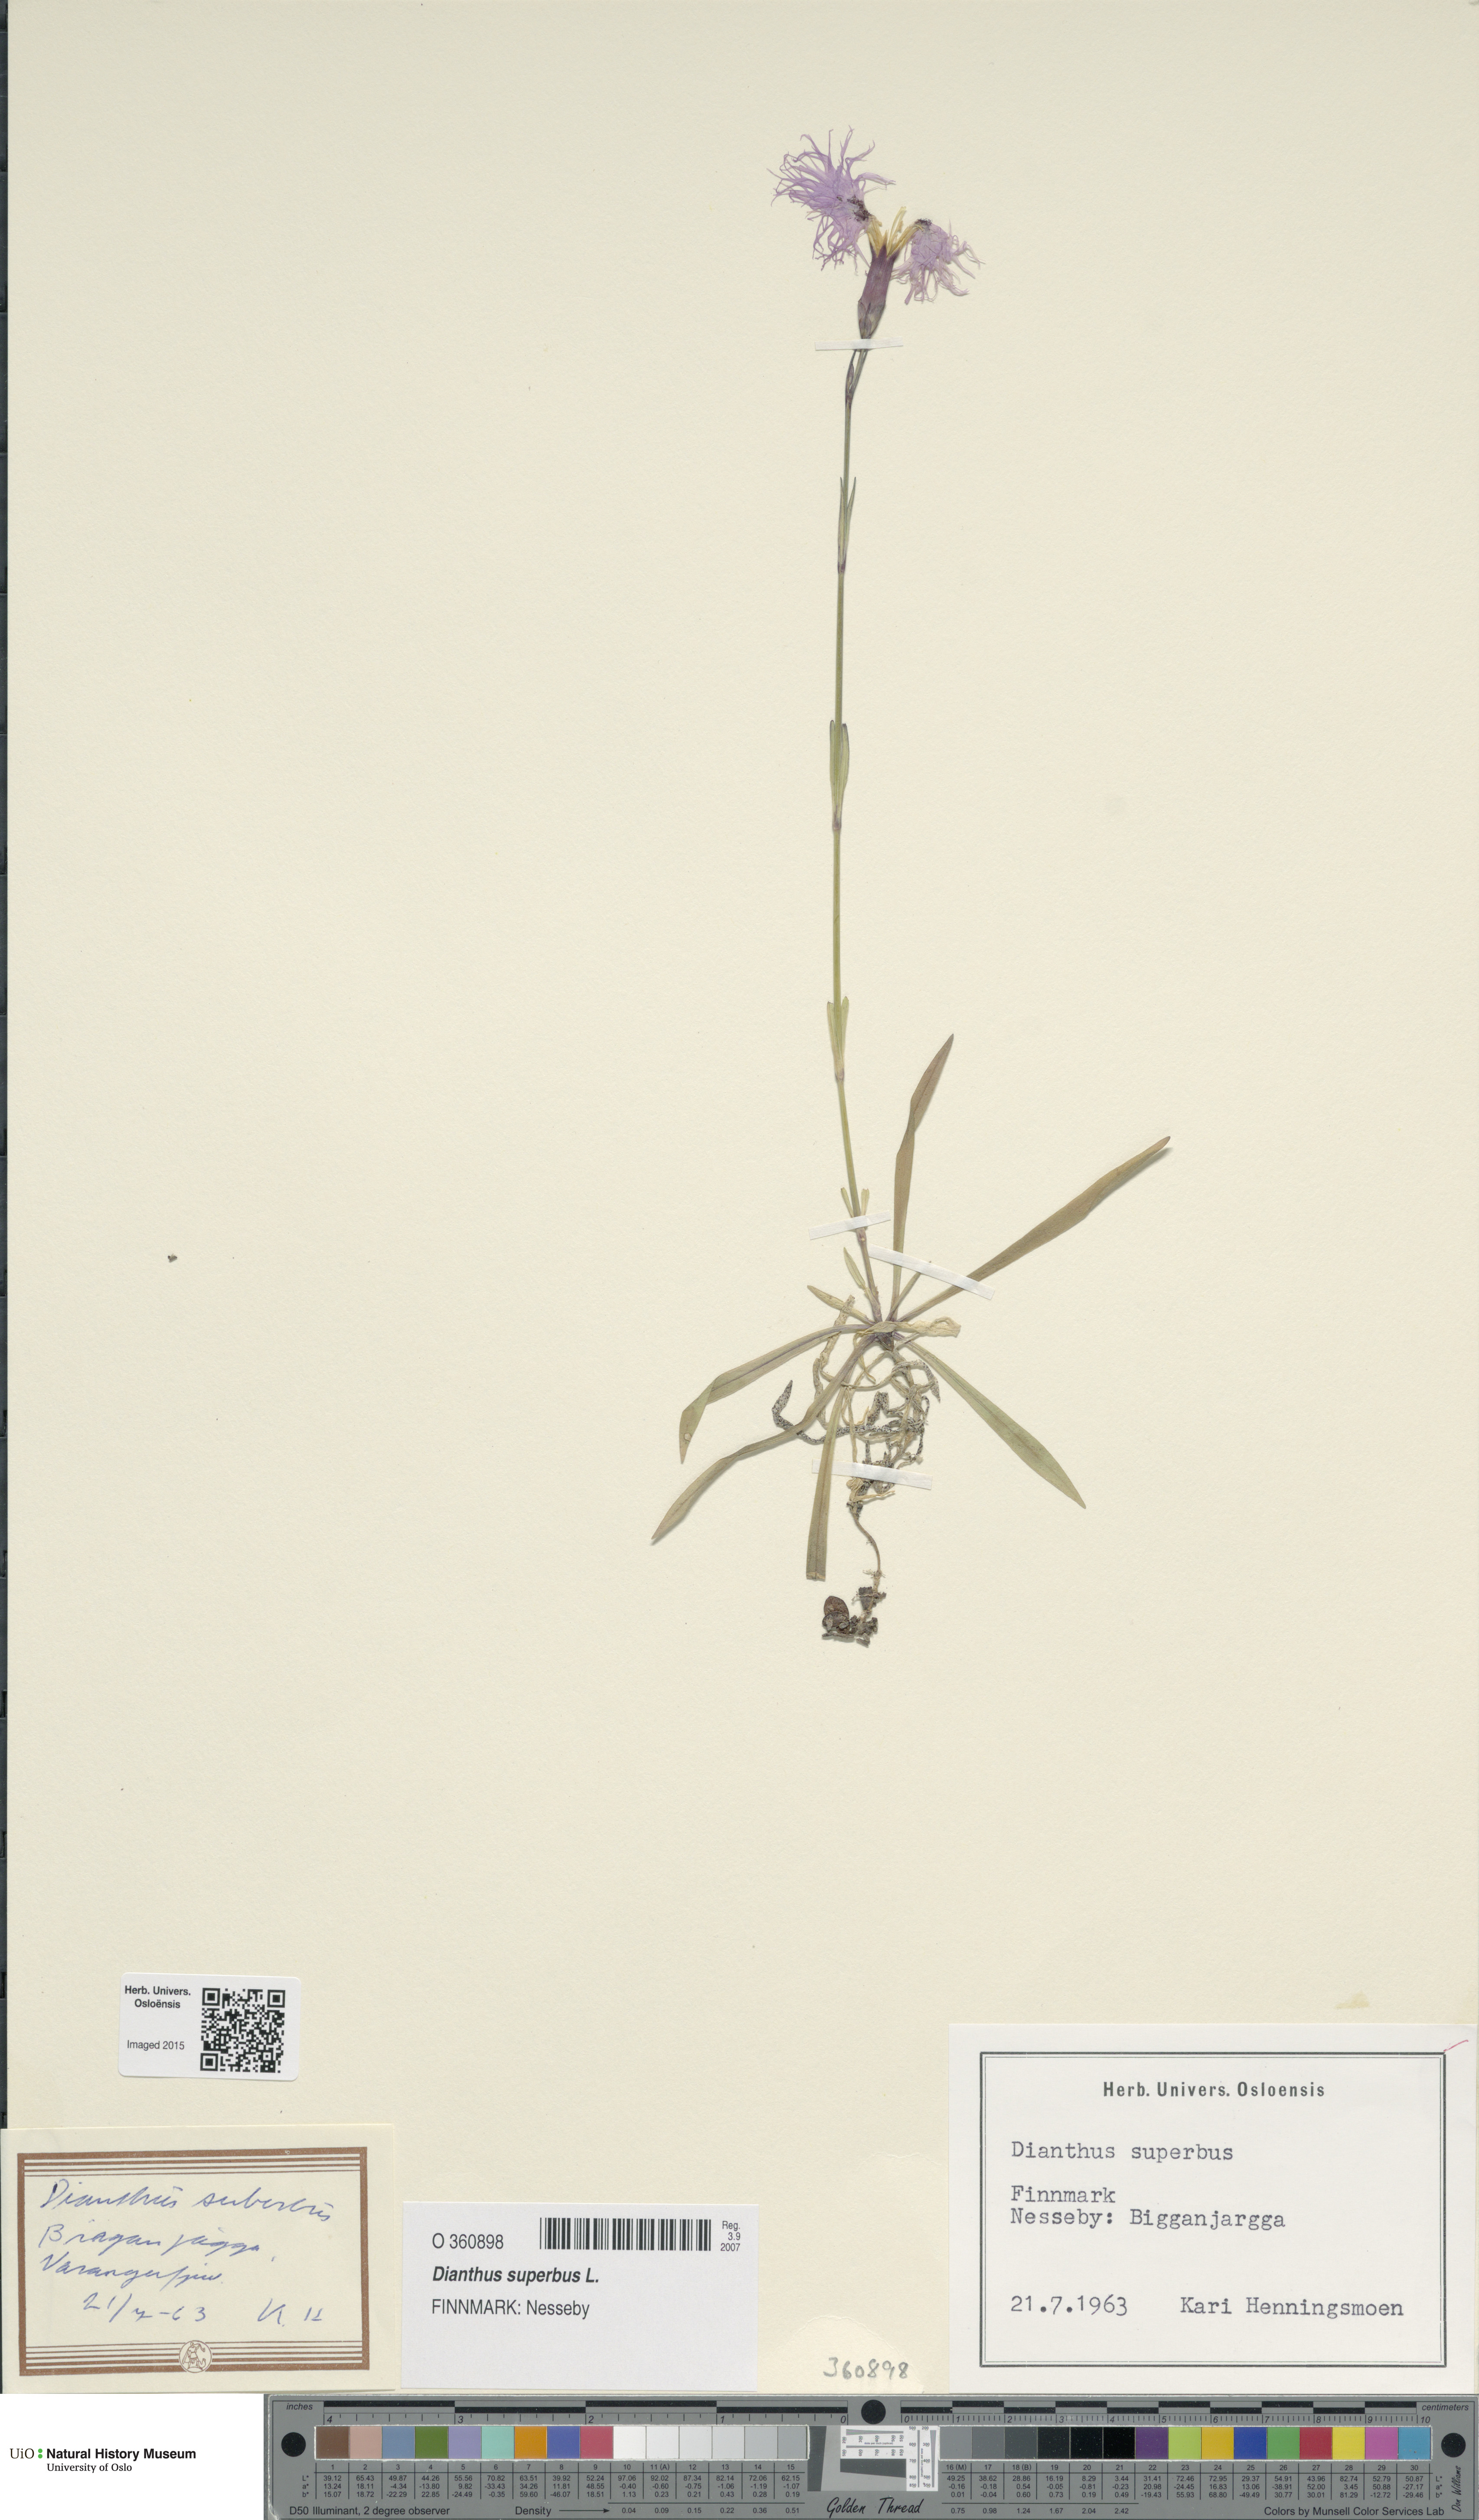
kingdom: Plantae
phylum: Tracheophyta
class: Magnoliopsida
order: Caryophyllales
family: Caryophyllaceae
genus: Dianthus
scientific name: Dianthus superbus
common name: Fringed pink
